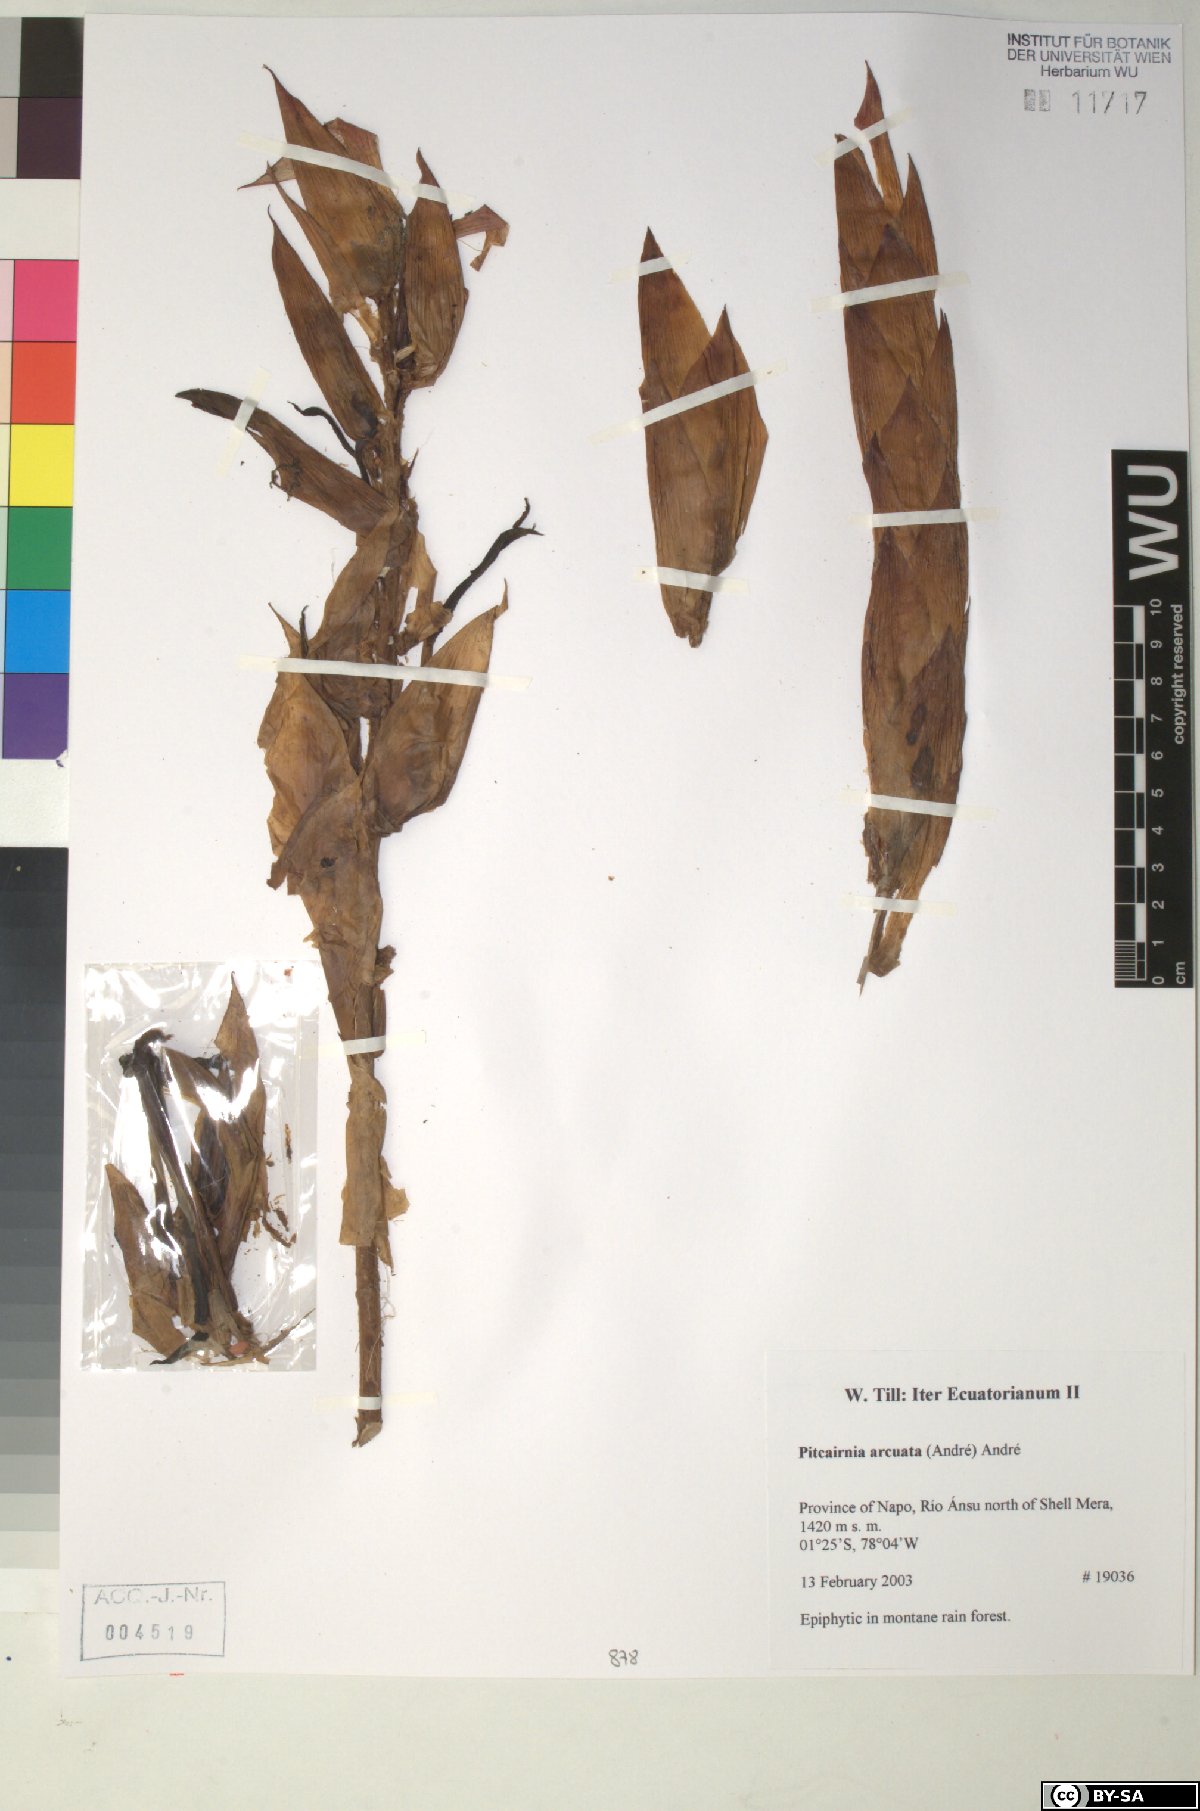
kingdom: Plantae
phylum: Tracheophyta
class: Liliopsida
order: Poales
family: Bromeliaceae
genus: Pitcairnia
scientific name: Pitcairnia arcuata
